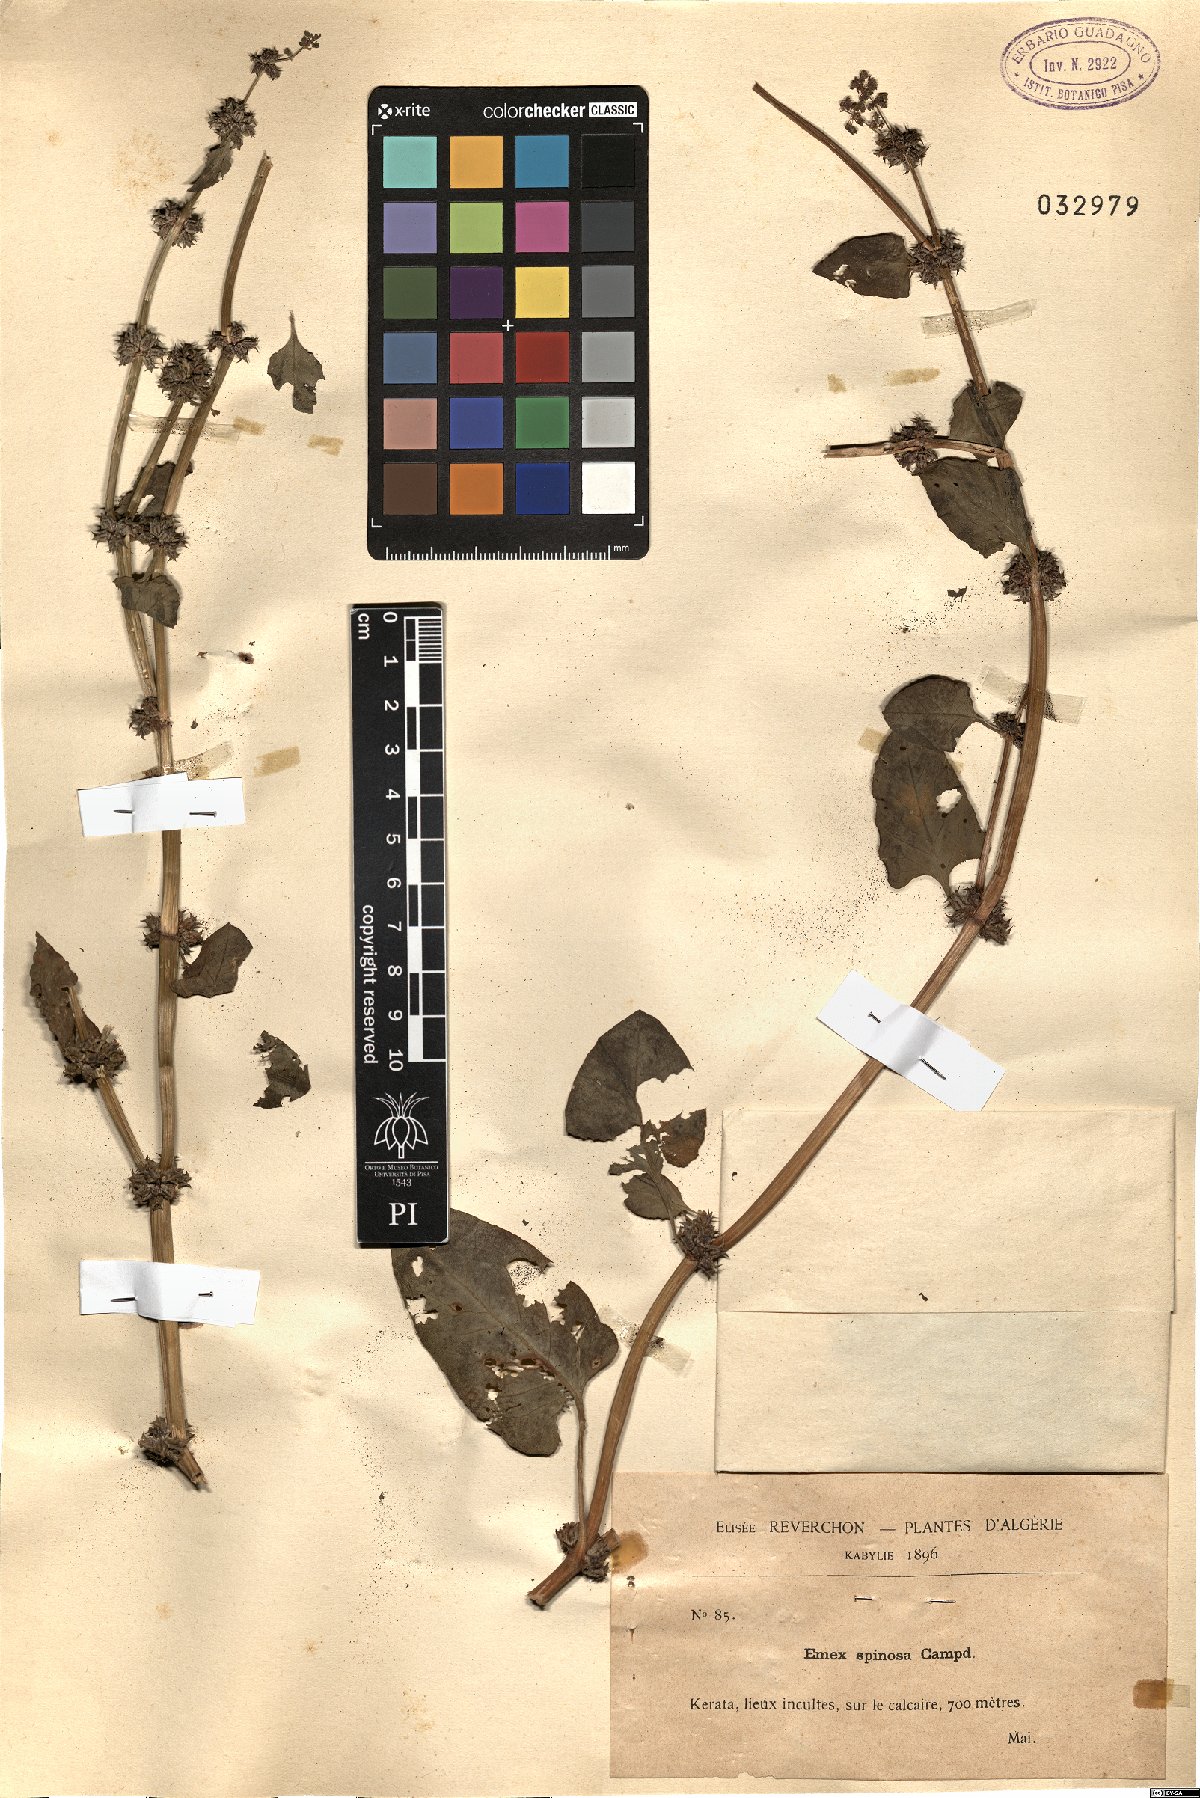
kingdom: Plantae
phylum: Tracheophyta
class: Magnoliopsida
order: Caryophyllales
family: Polygonaceae
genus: Rumex
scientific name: Rumex spinosus
